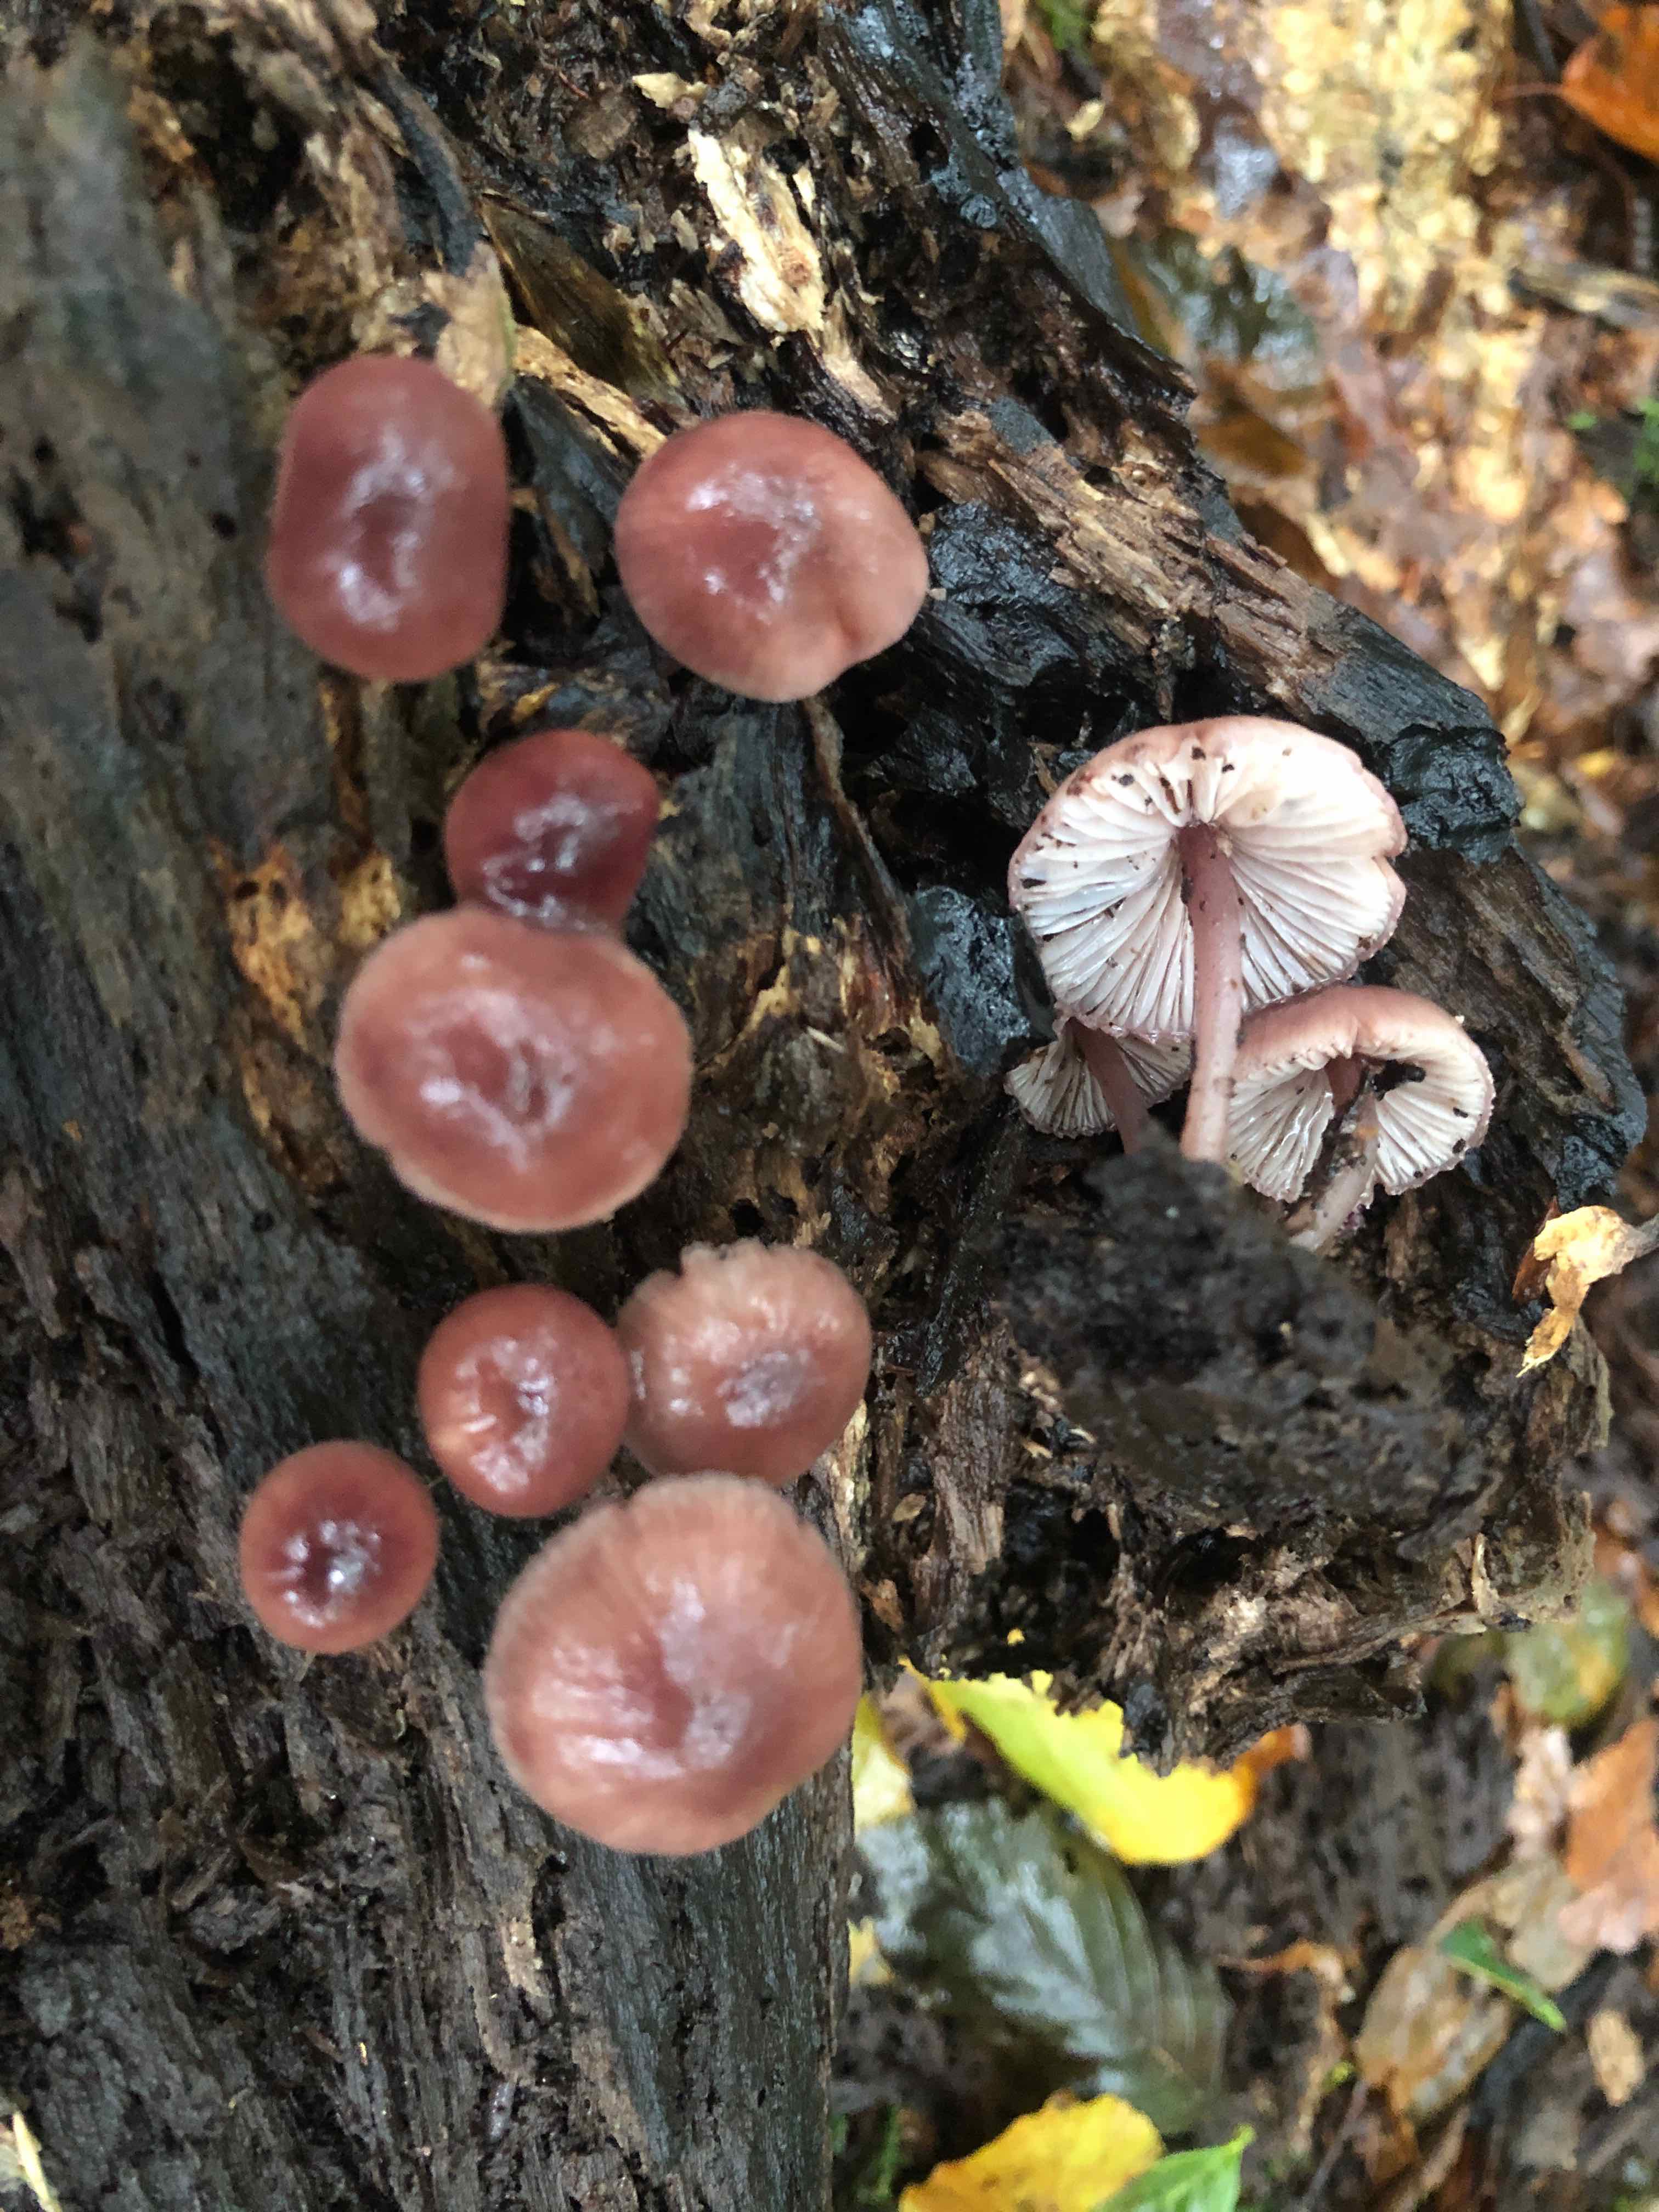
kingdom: Fungi
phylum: Basidiomycota
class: Agaricomycetes
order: Agaricales
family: Mycenaceae
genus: Mycena
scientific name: Mycena haematopus
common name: blødende huesvamp
